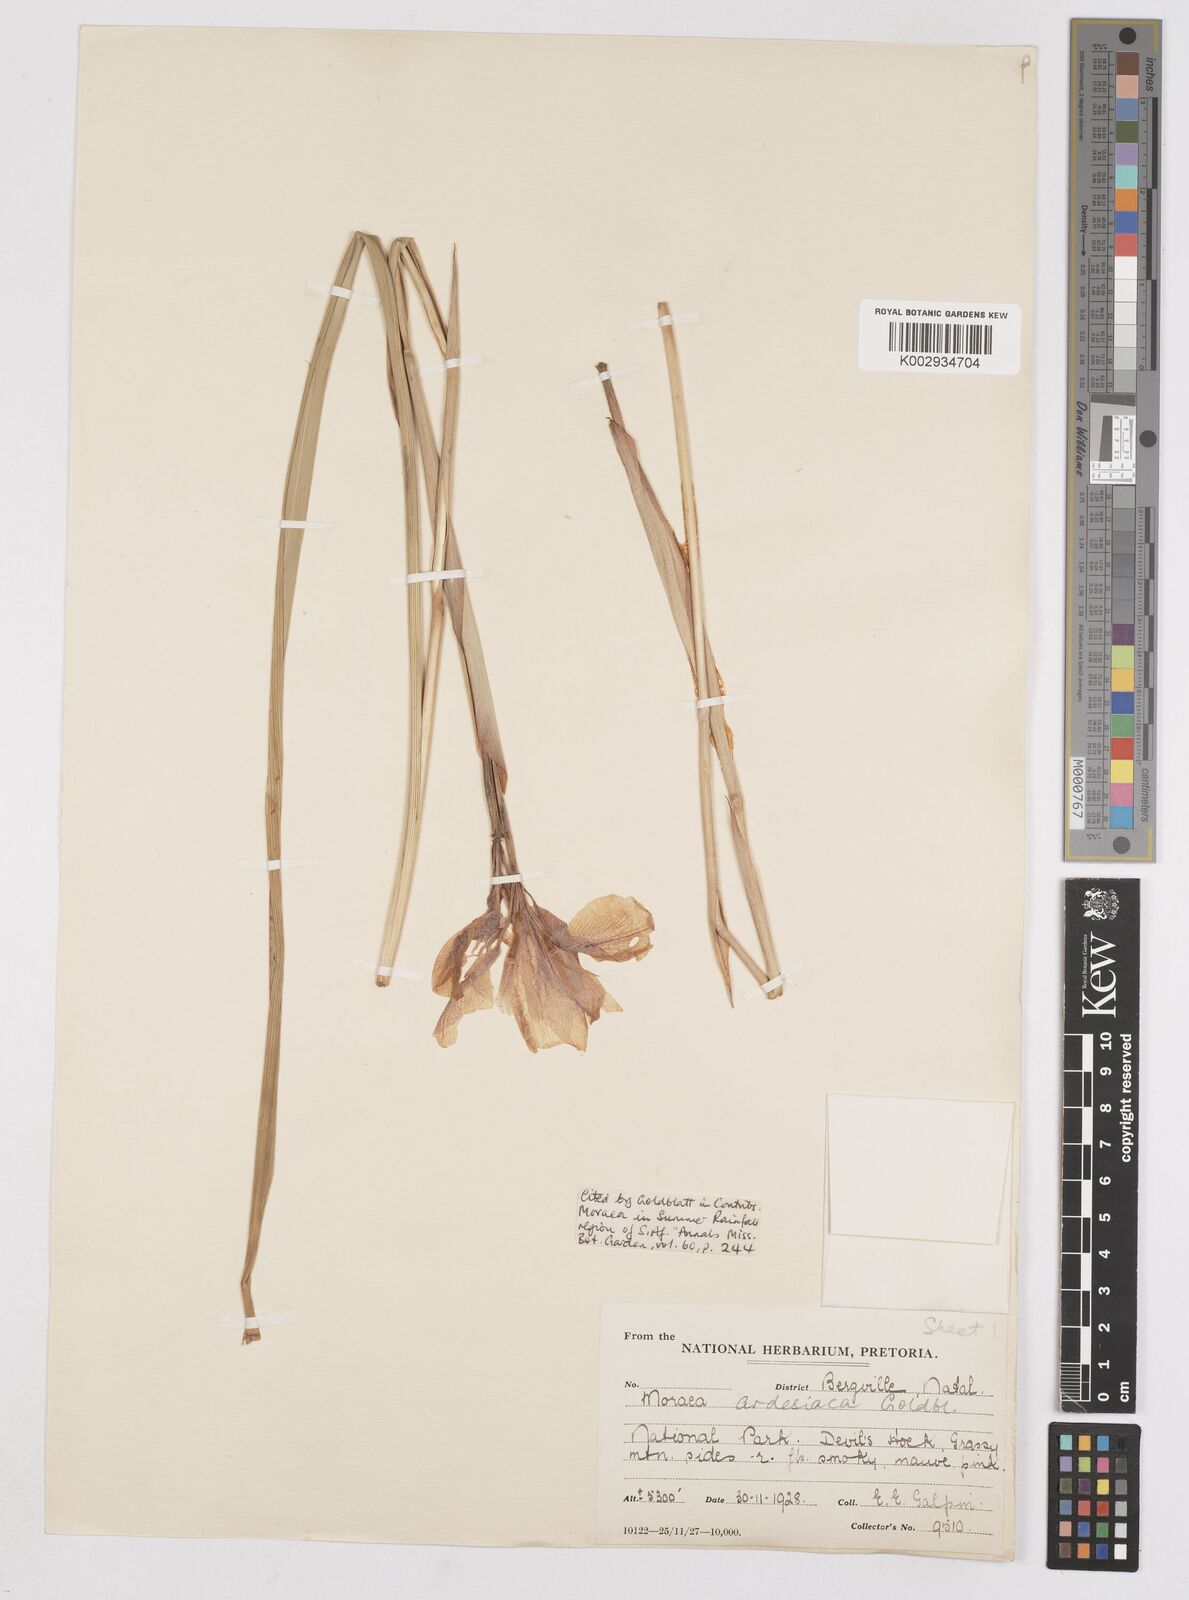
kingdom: Plantae
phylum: Tracheophyta
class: Liliopsida
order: Asparagales
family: Iridaceae
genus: Moraea
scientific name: Moraea ardesiaca
